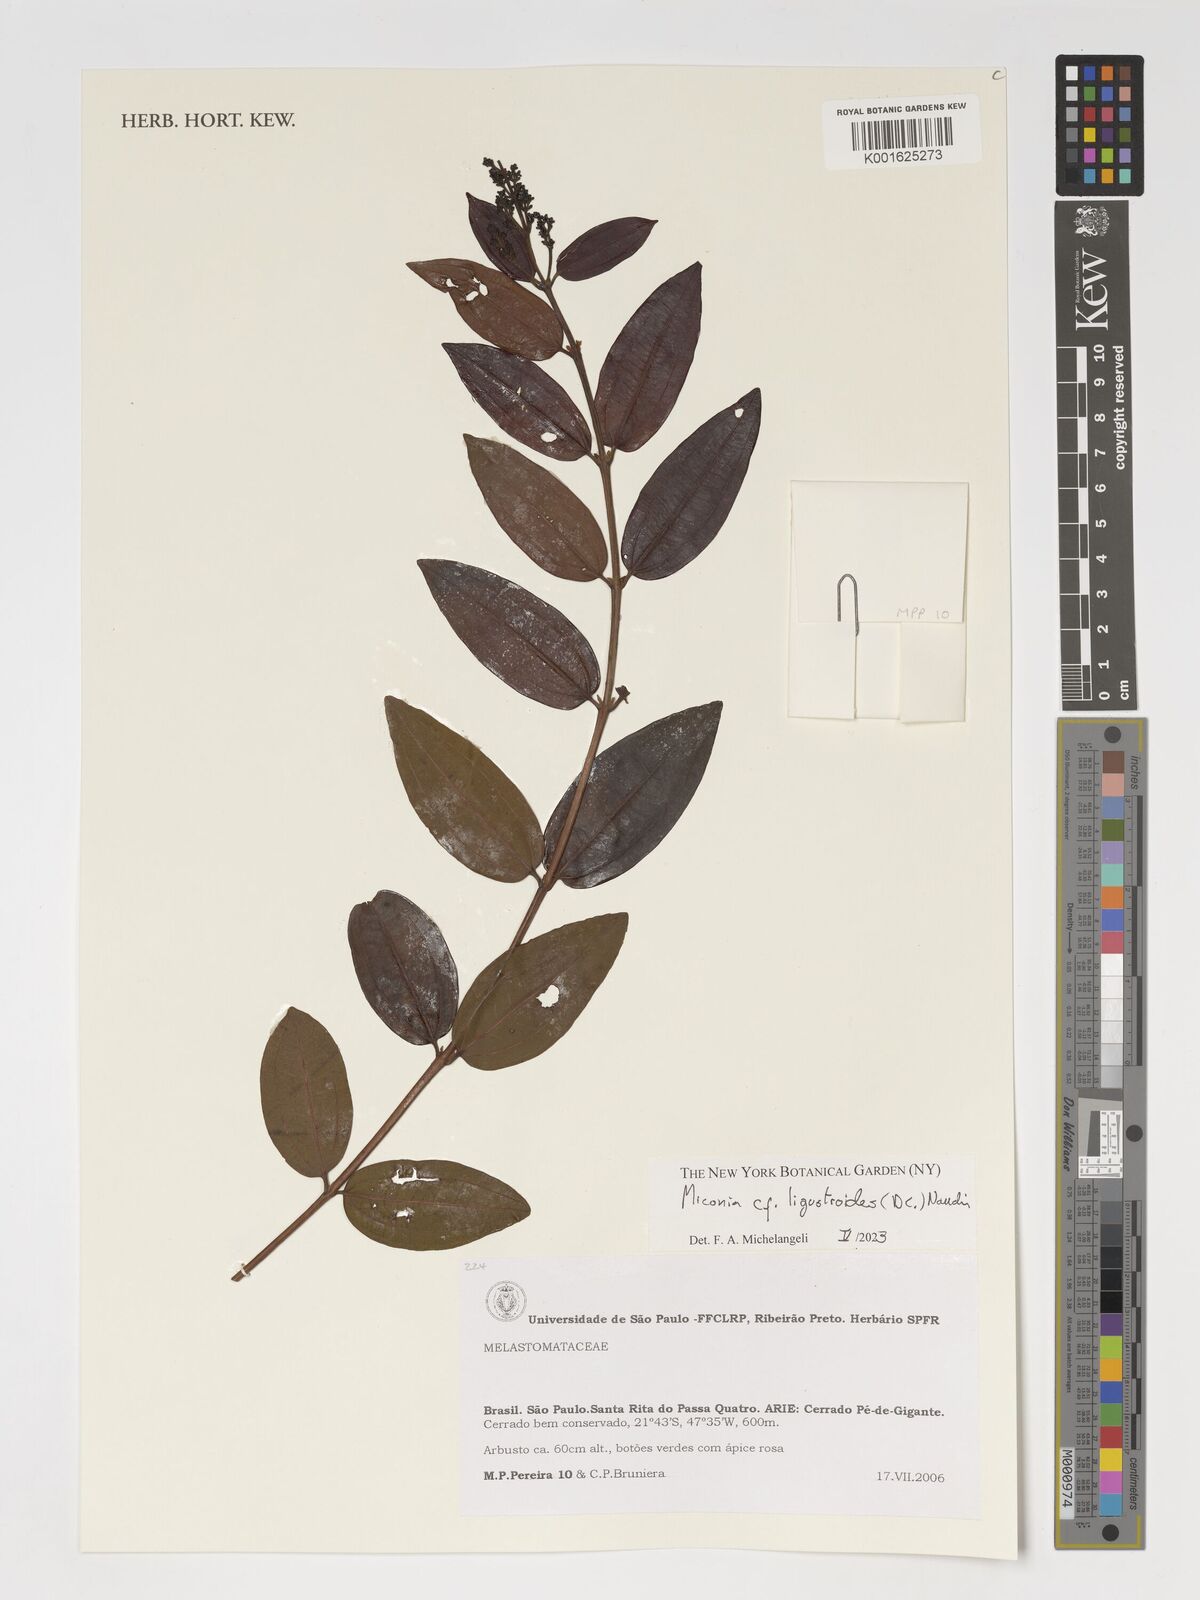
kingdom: Plantae
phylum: Tracheophyta
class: Magnoliopsida
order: Myrtales
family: Melastomataceae
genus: Miconia
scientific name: Miconia ligustroides
